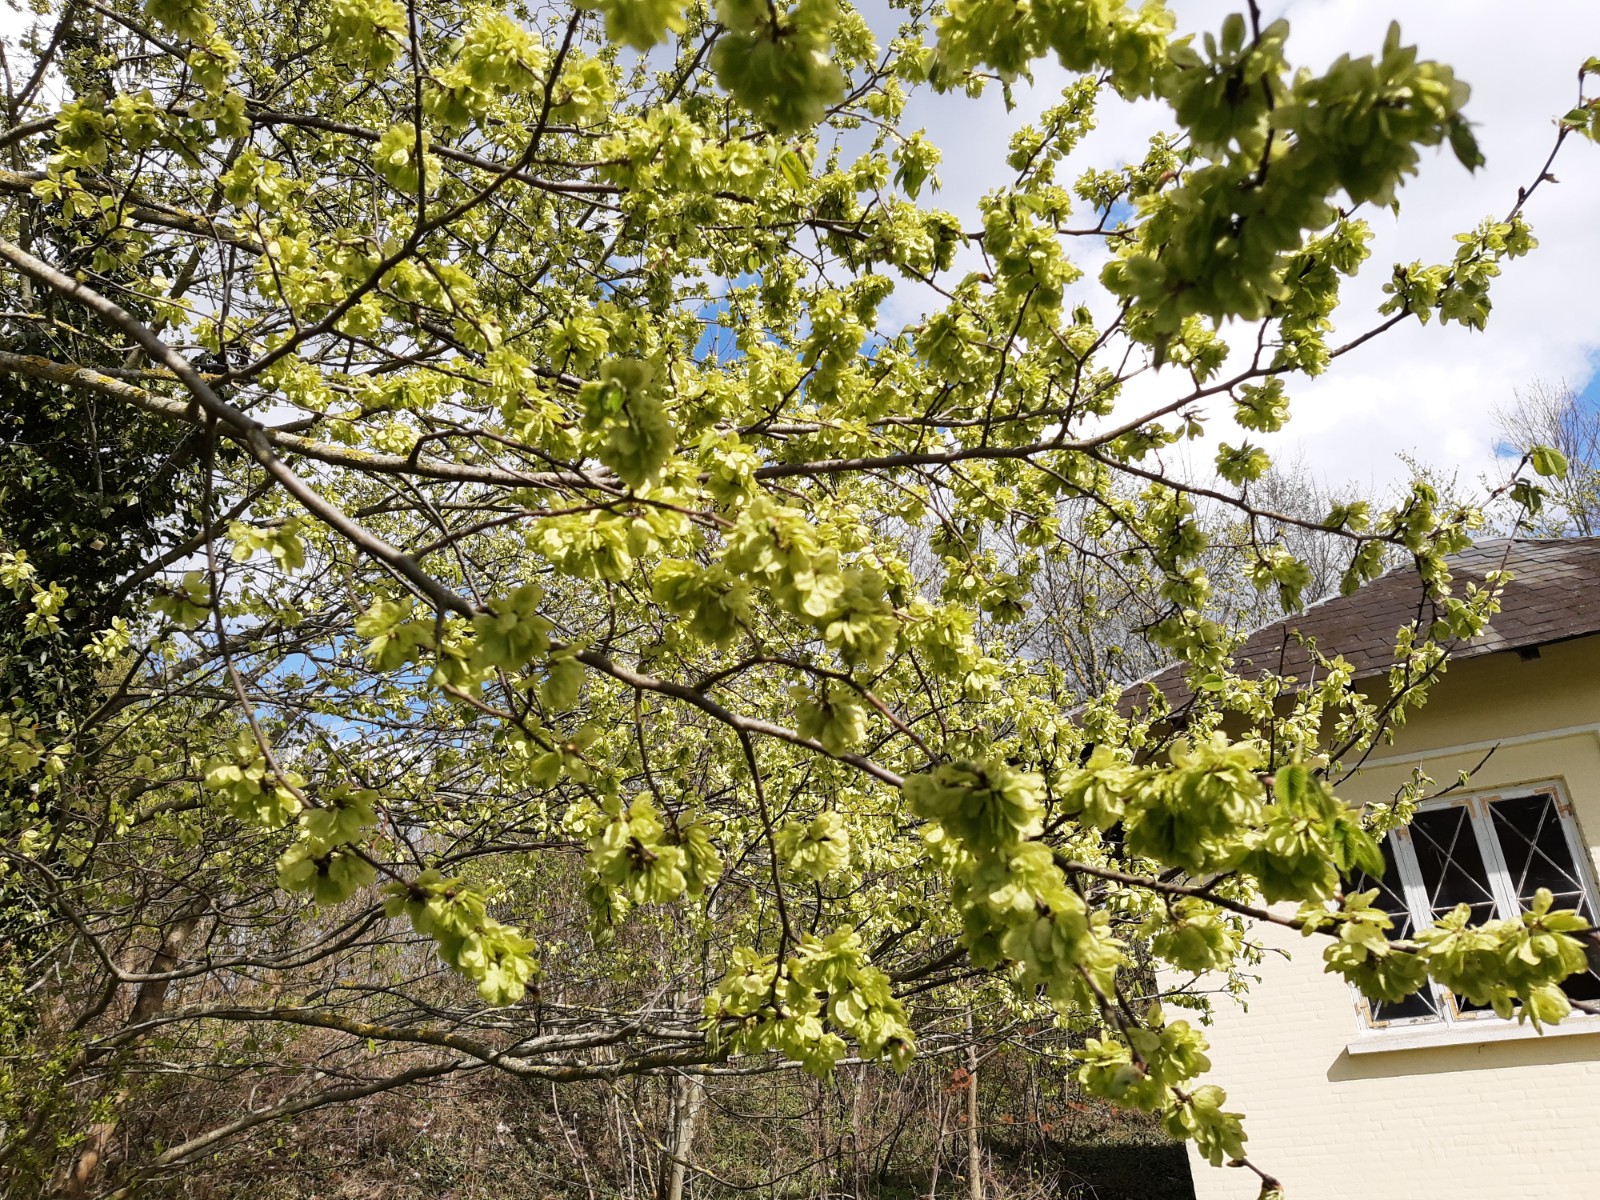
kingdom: Fungi
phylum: Ascomycota
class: Pezizomycetes
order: Pezizales
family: Morchellaceae
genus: Morchella
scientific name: Morchella
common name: morkel
